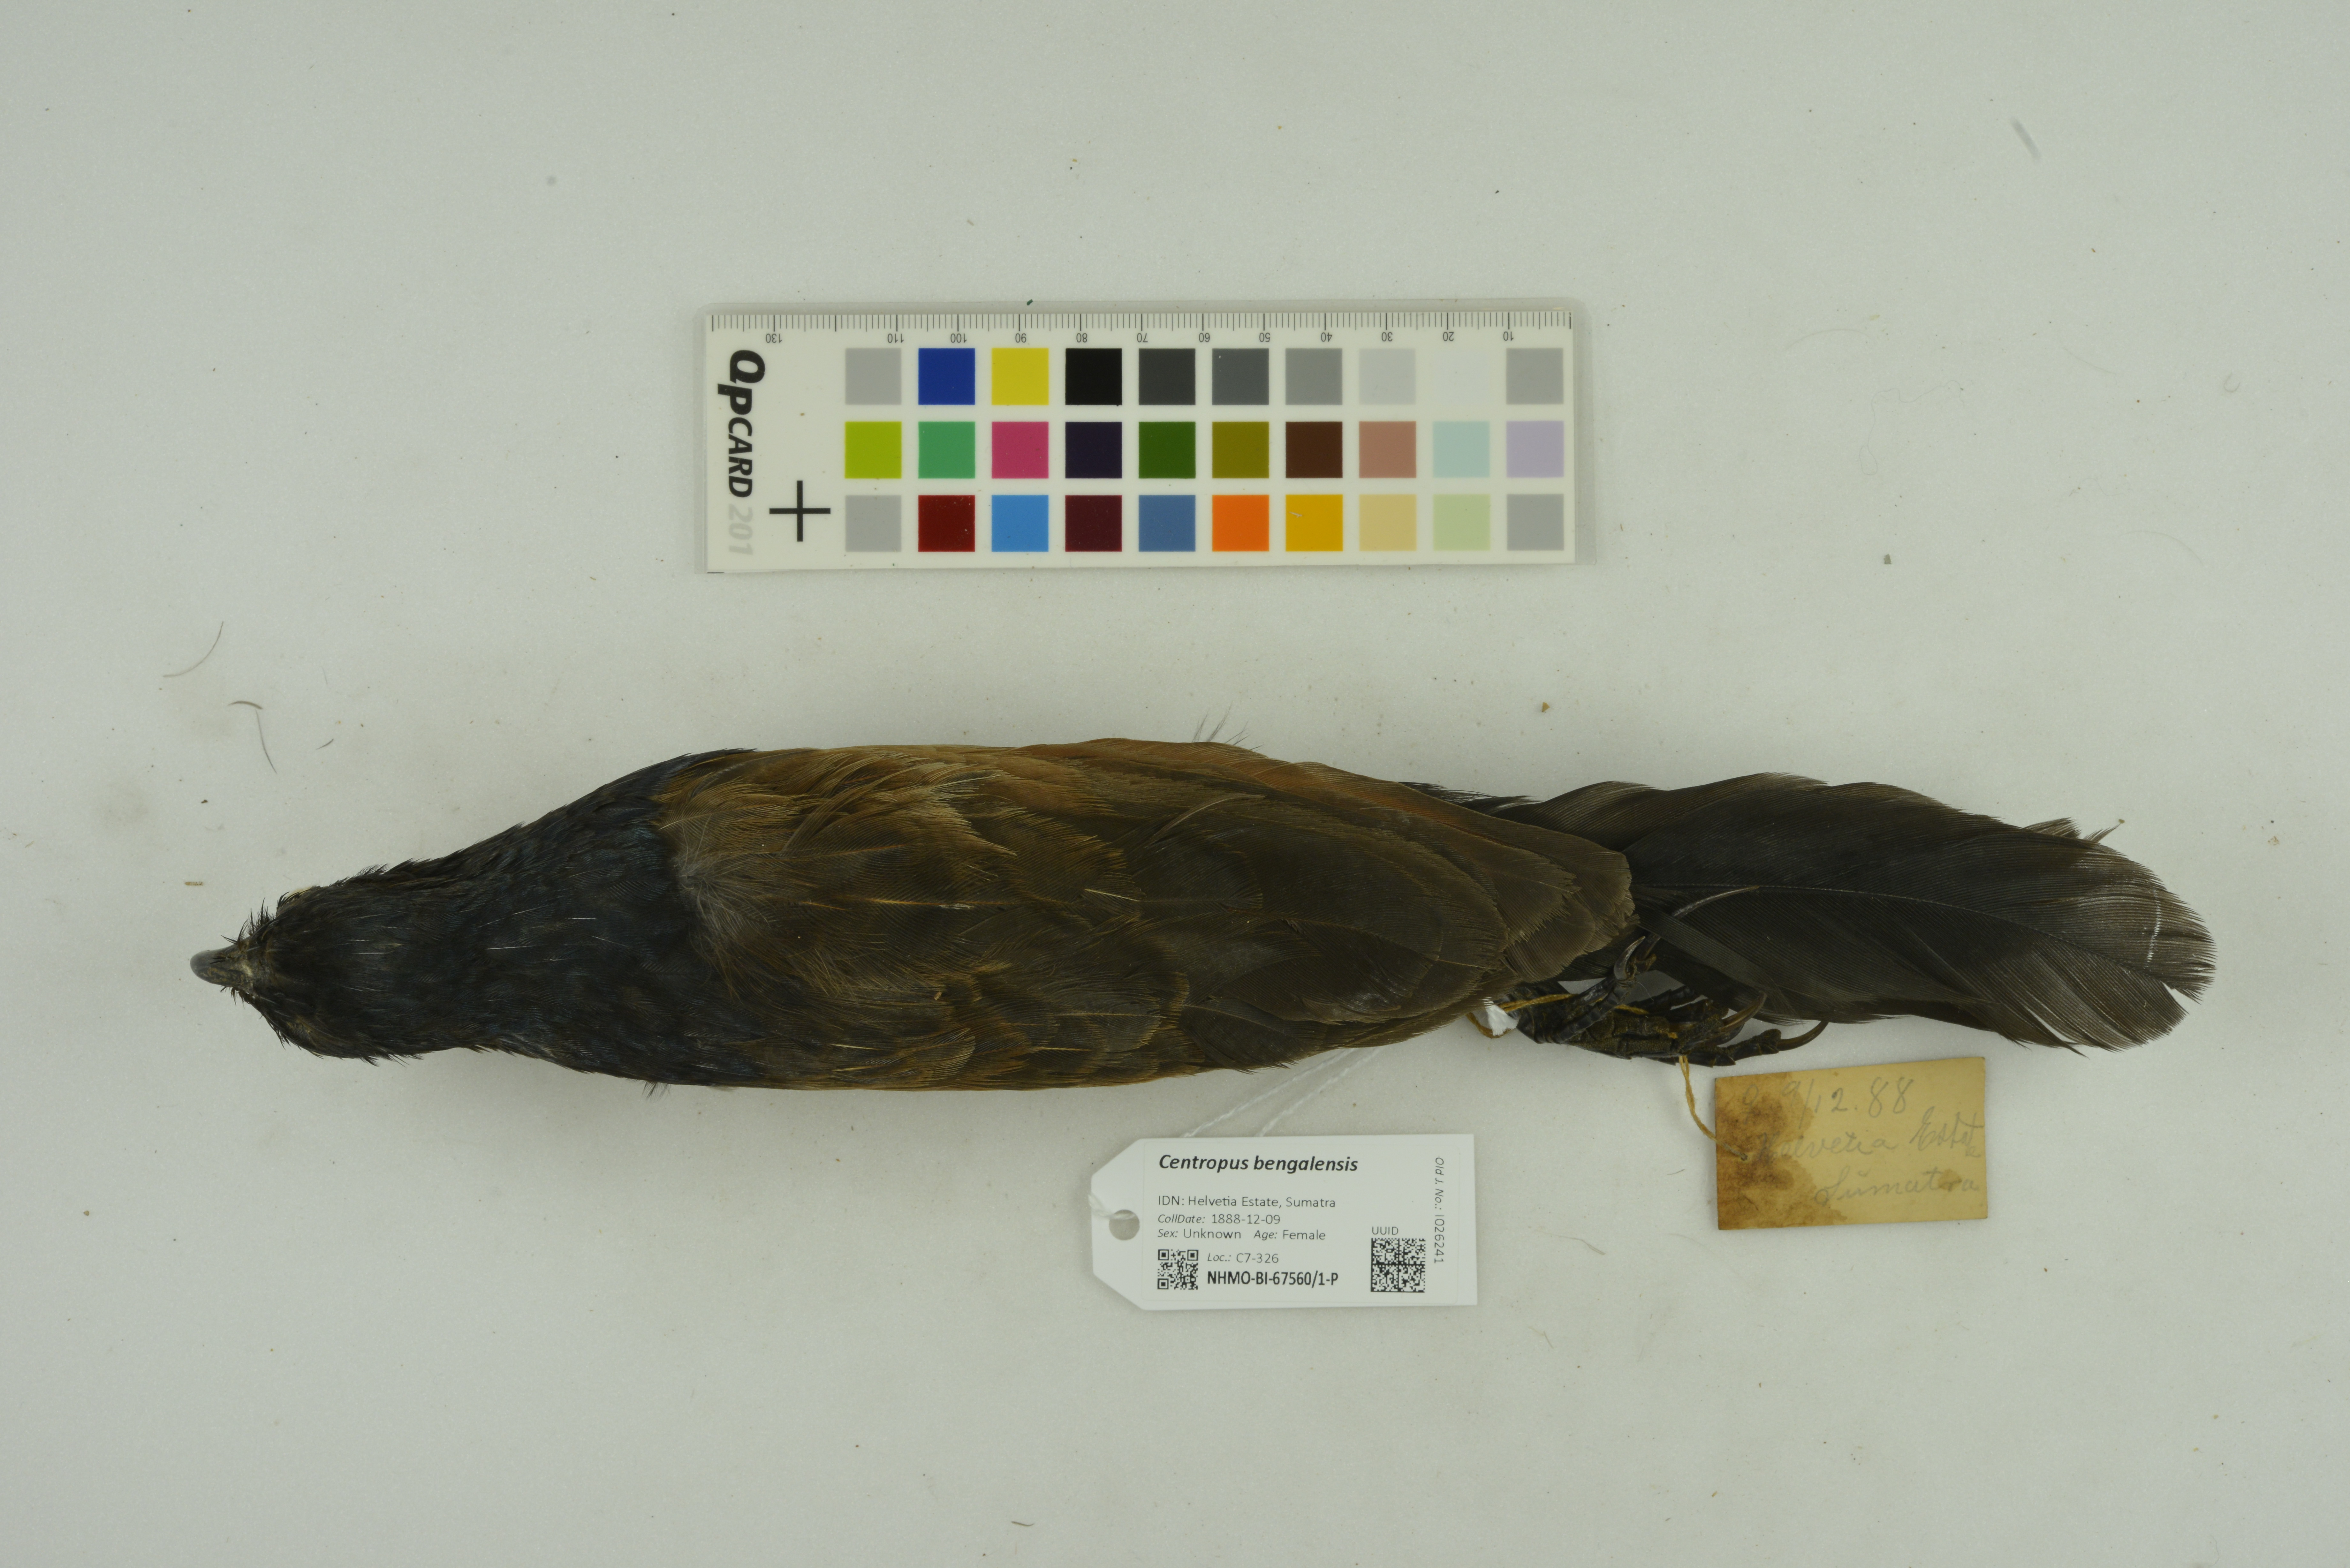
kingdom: Animalia
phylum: Chordata
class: Aves
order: Cuculiformes
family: Cuculidae
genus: Centropus
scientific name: Centropus bengalensis
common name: Lesser coucal
